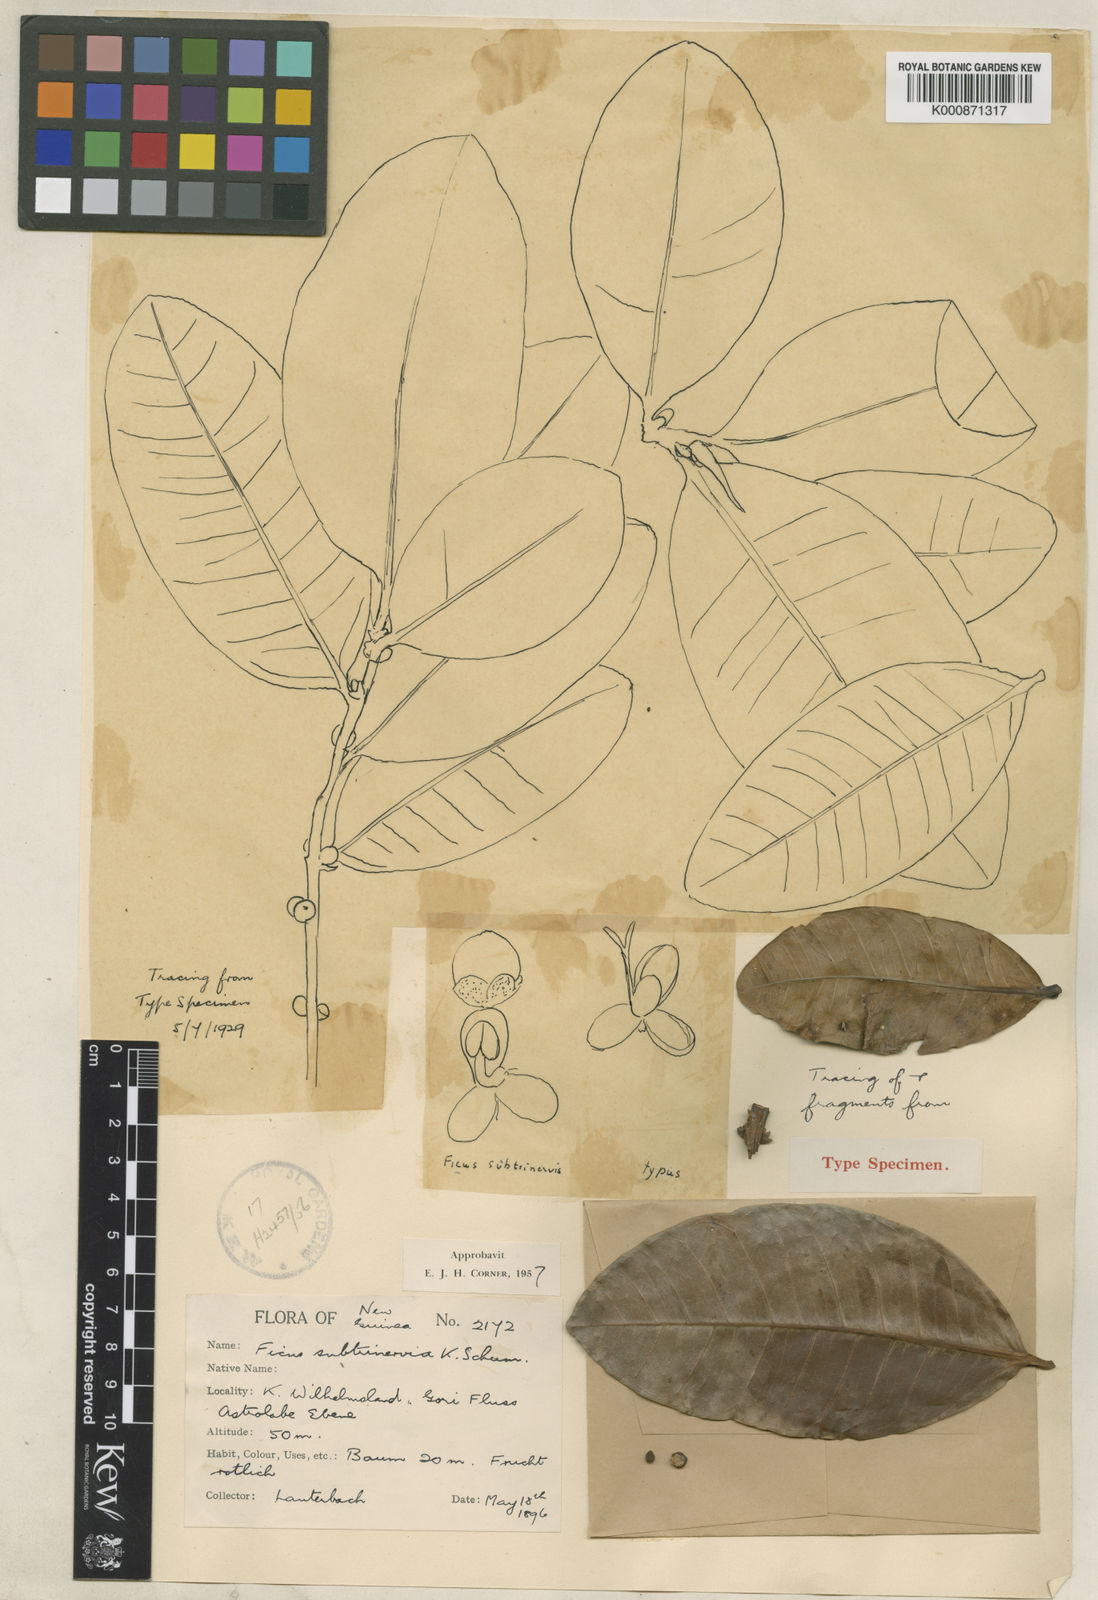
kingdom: Plantae
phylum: Tracheophyta
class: Magnoliopsida
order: Rosales
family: Moraceae
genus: Ficus
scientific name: Ficus subtrinervia
